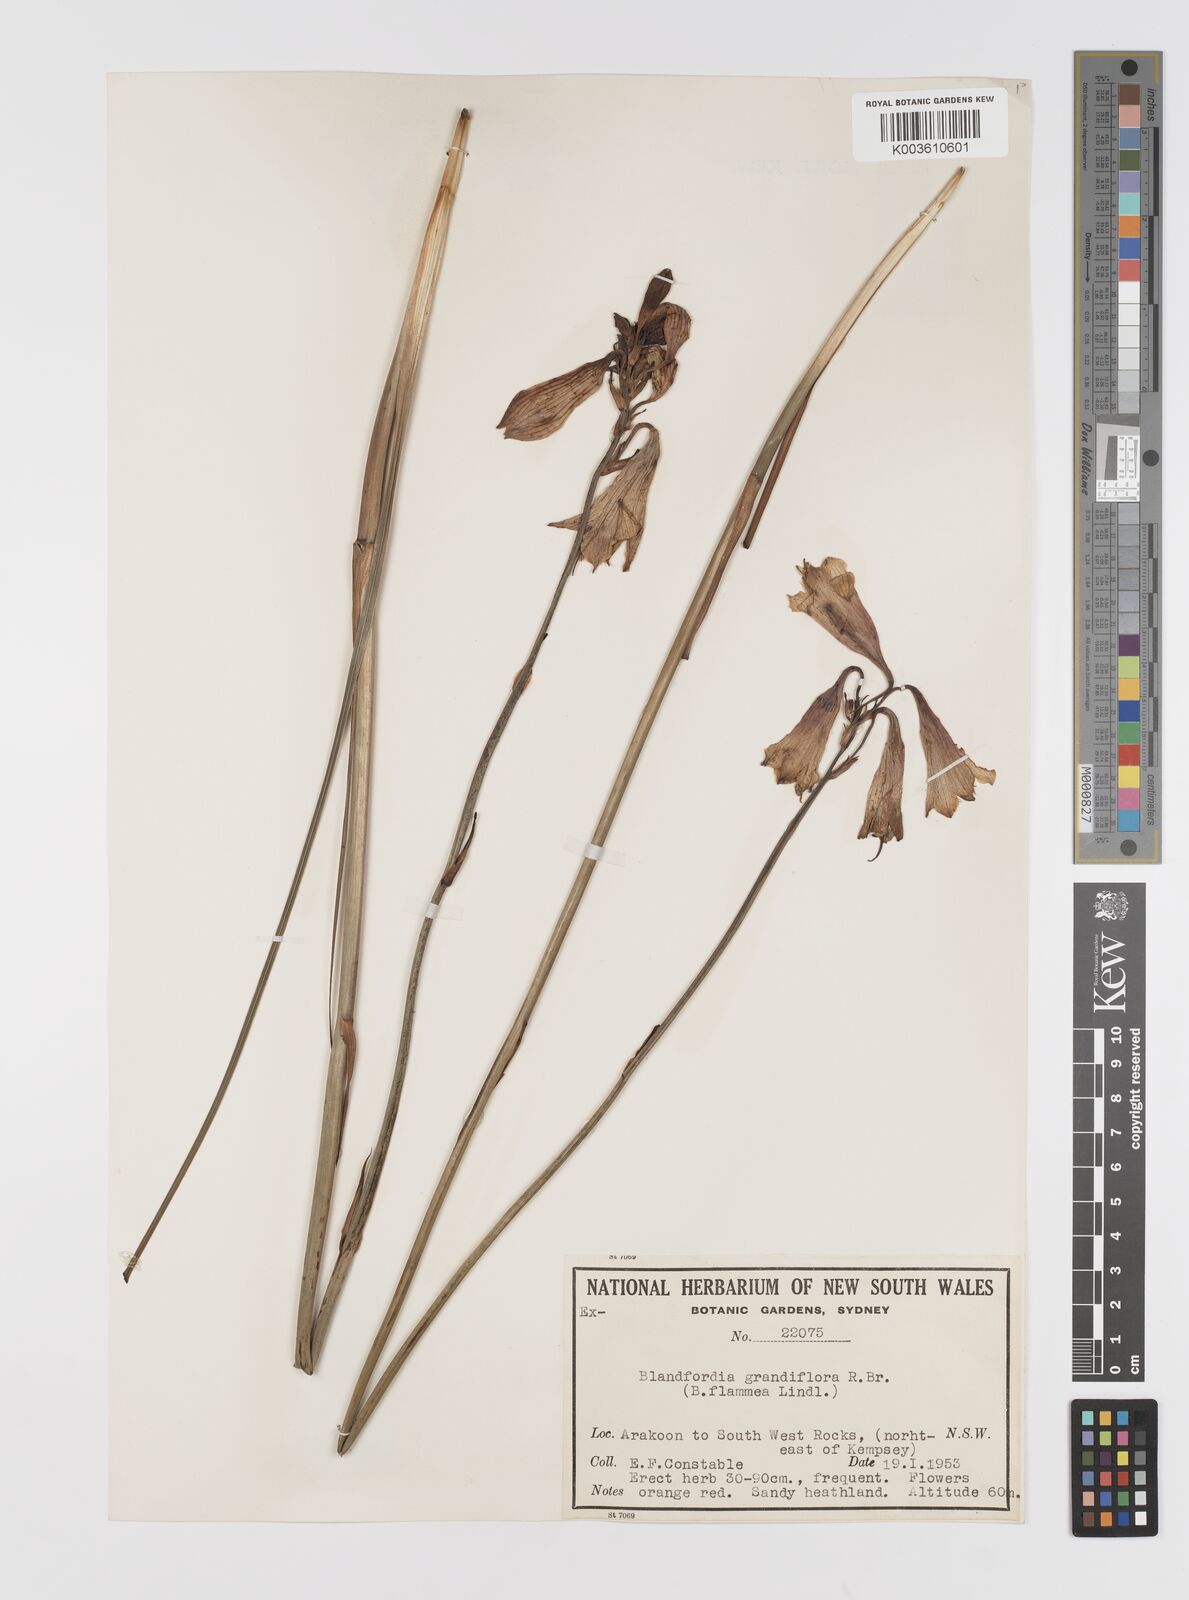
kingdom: Plantae
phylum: Tracheophyta
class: Liliopsida
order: Asparagales
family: Blandfordiaceae
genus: Blandfordia
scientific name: Blandfordia grandiflora
